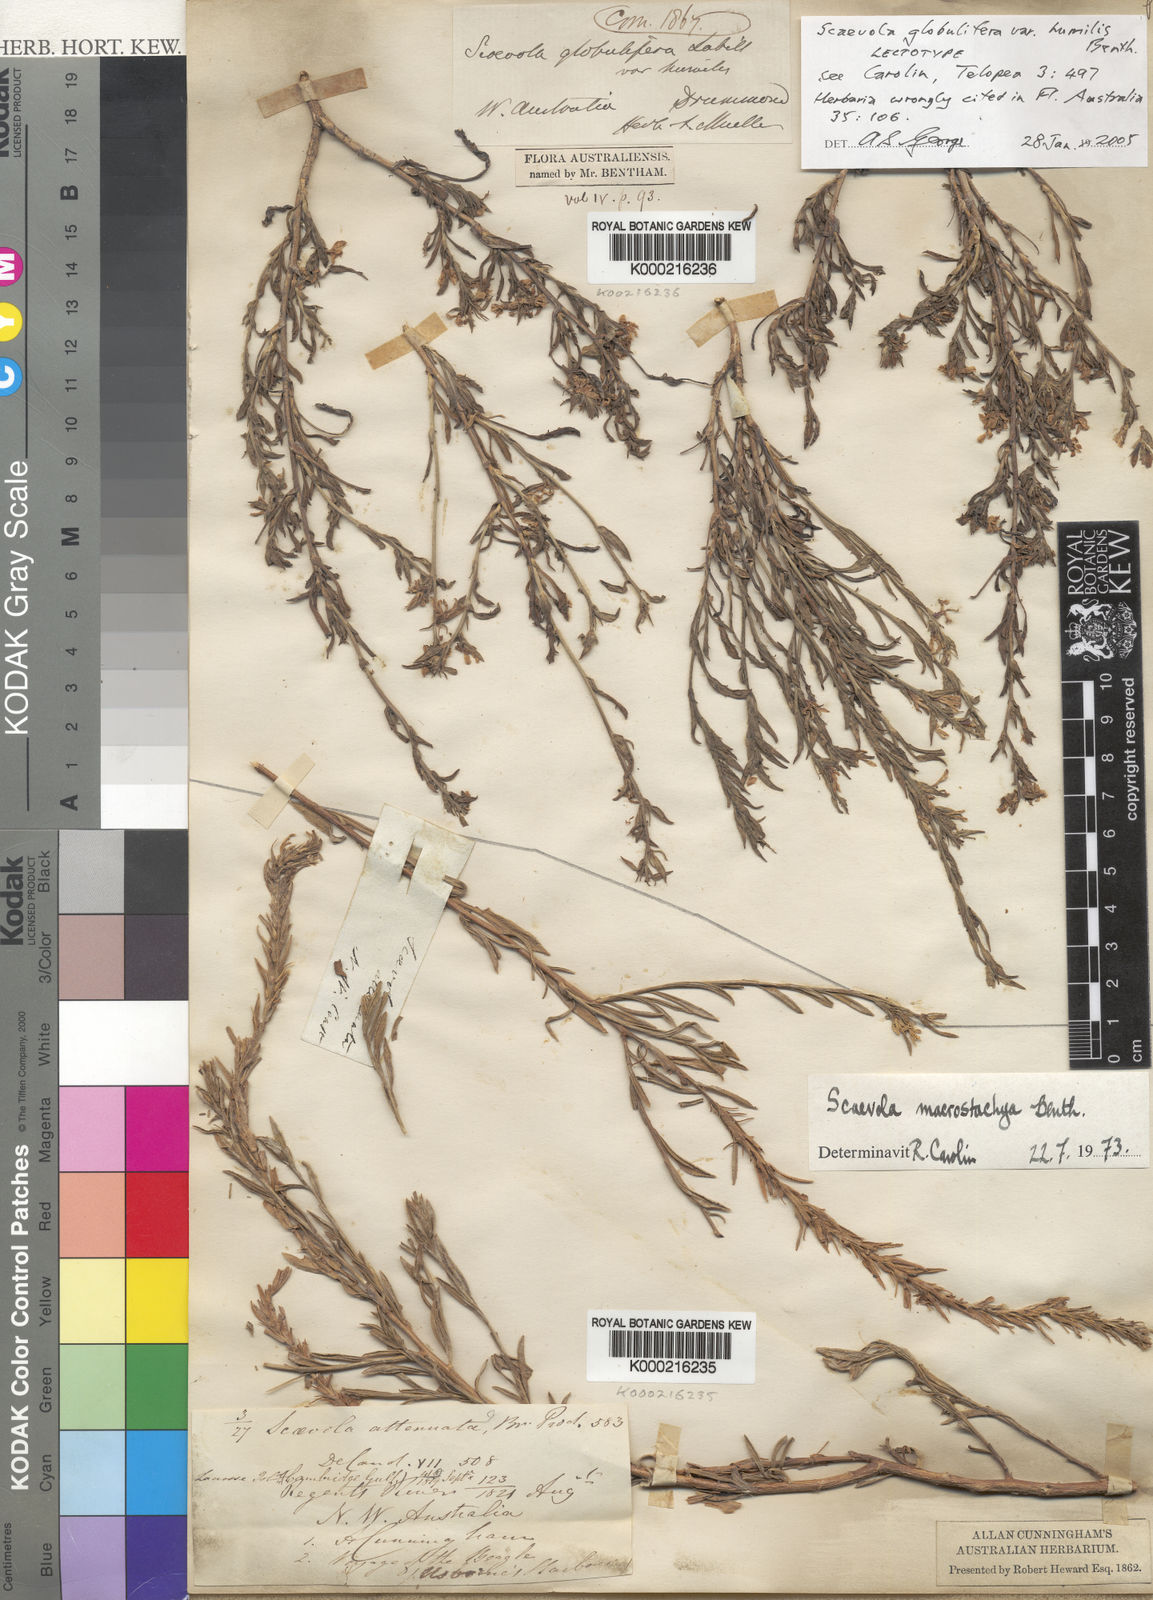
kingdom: Plantae
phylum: Tracheophyta
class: Magnoliopsida
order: Asterales
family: Goodeniaceae
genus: Scaevola
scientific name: Scaevola nitida
